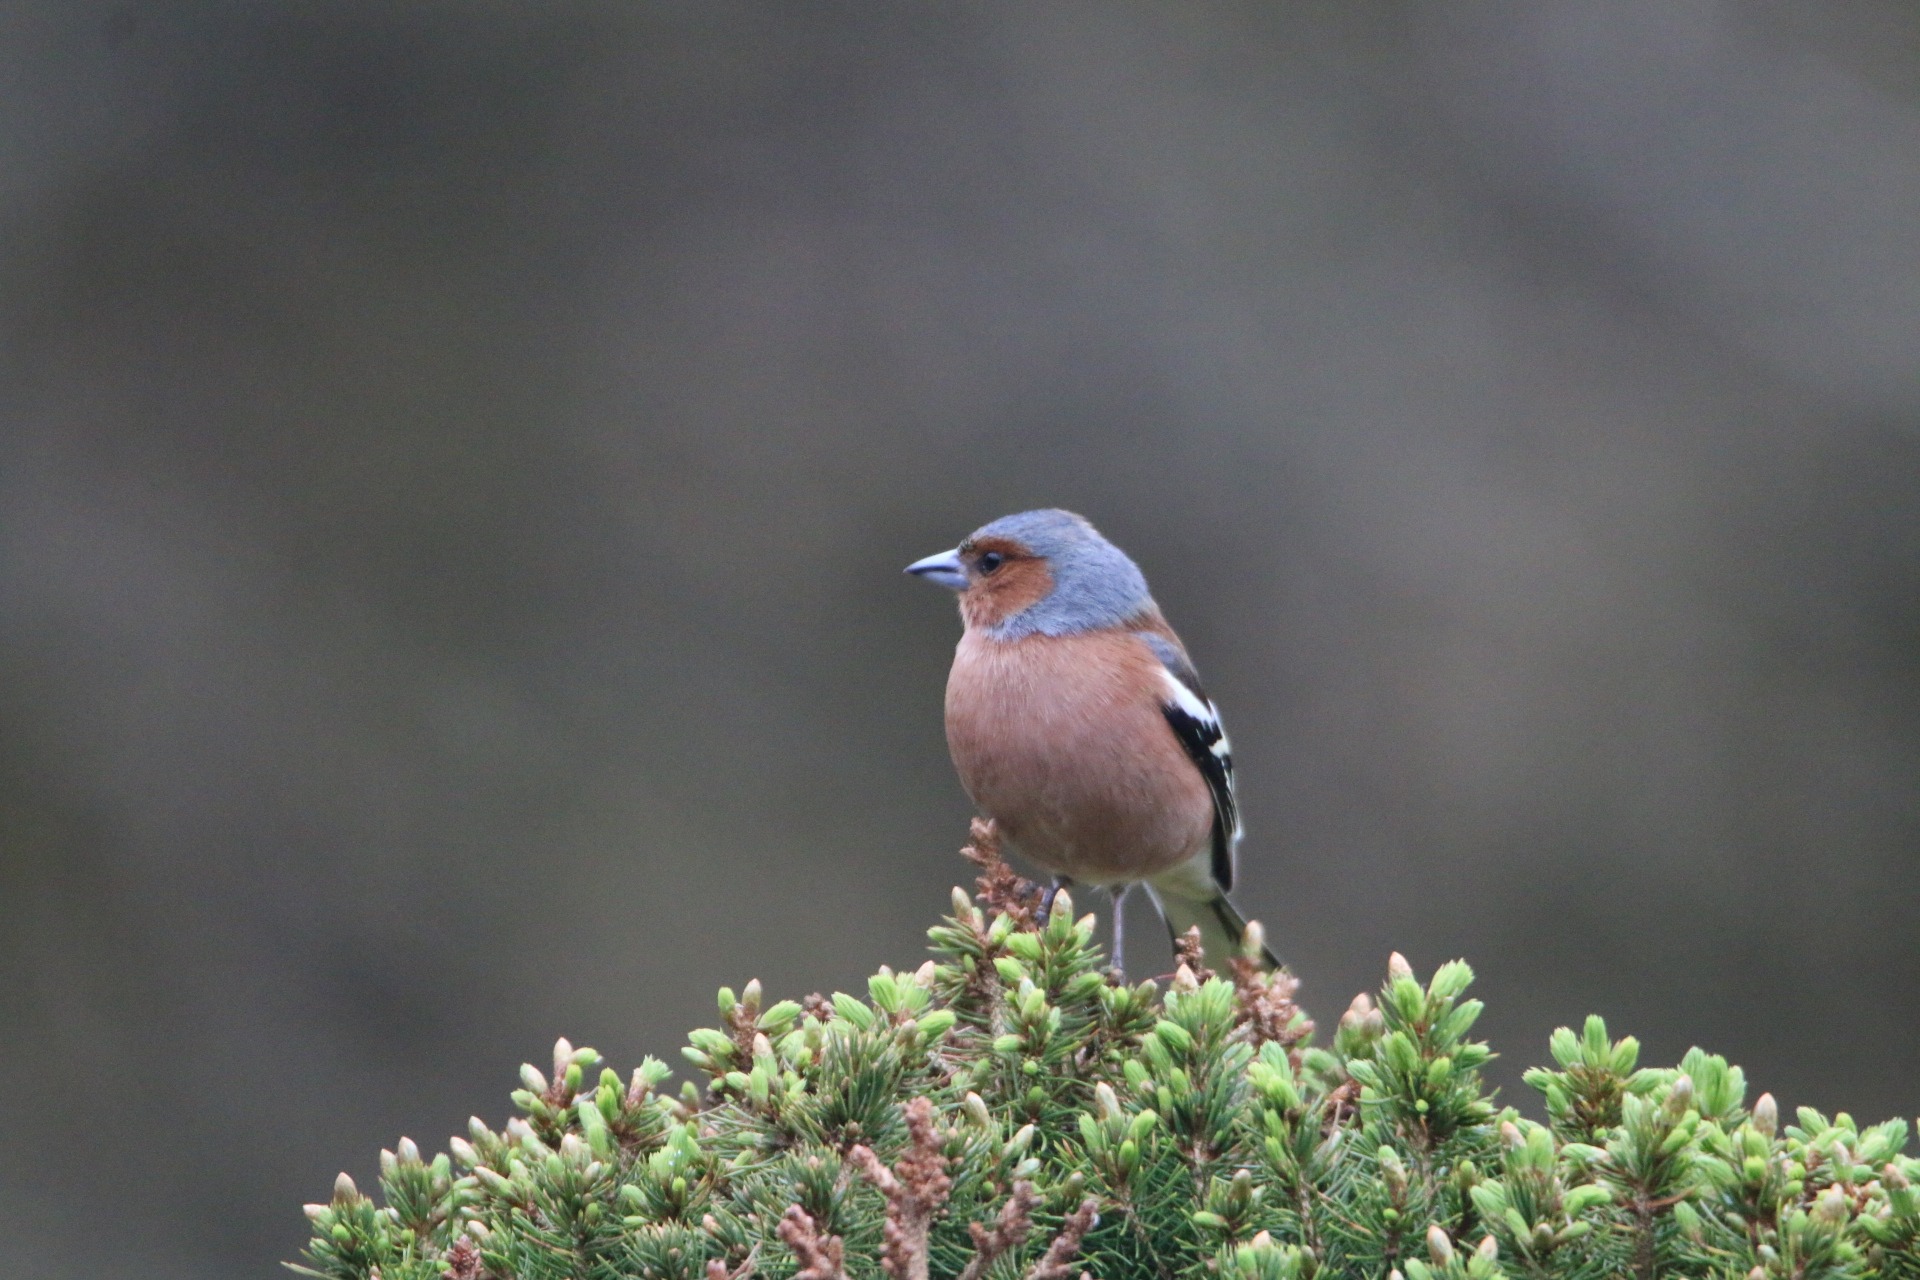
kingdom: Animalia
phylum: Chordata
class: Aves
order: Passeriformes
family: Fringillidae
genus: Fringilla
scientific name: Fringilla coelebs
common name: Bogfinke
